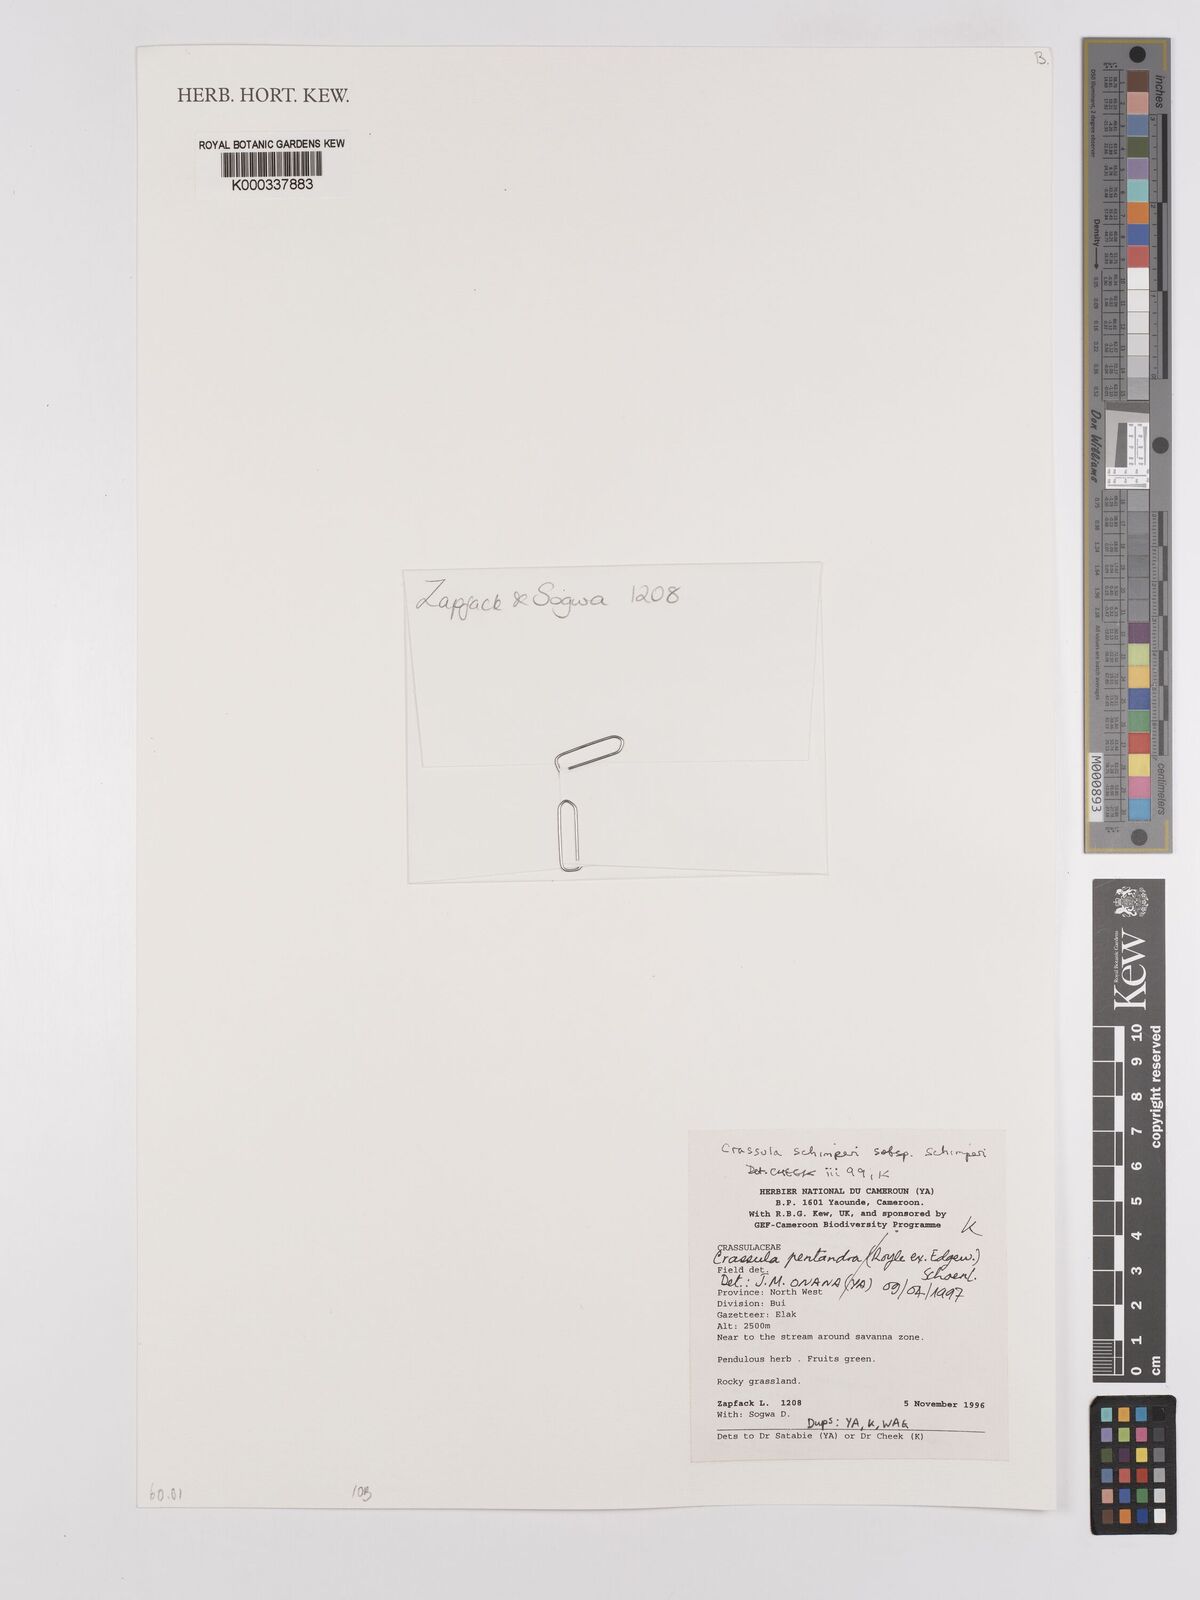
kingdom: Plantae
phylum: Tracheophyta
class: Magnoliopsida
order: Saxifragales
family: Crassulaceae
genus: Crassula
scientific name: Crassula schimperi
